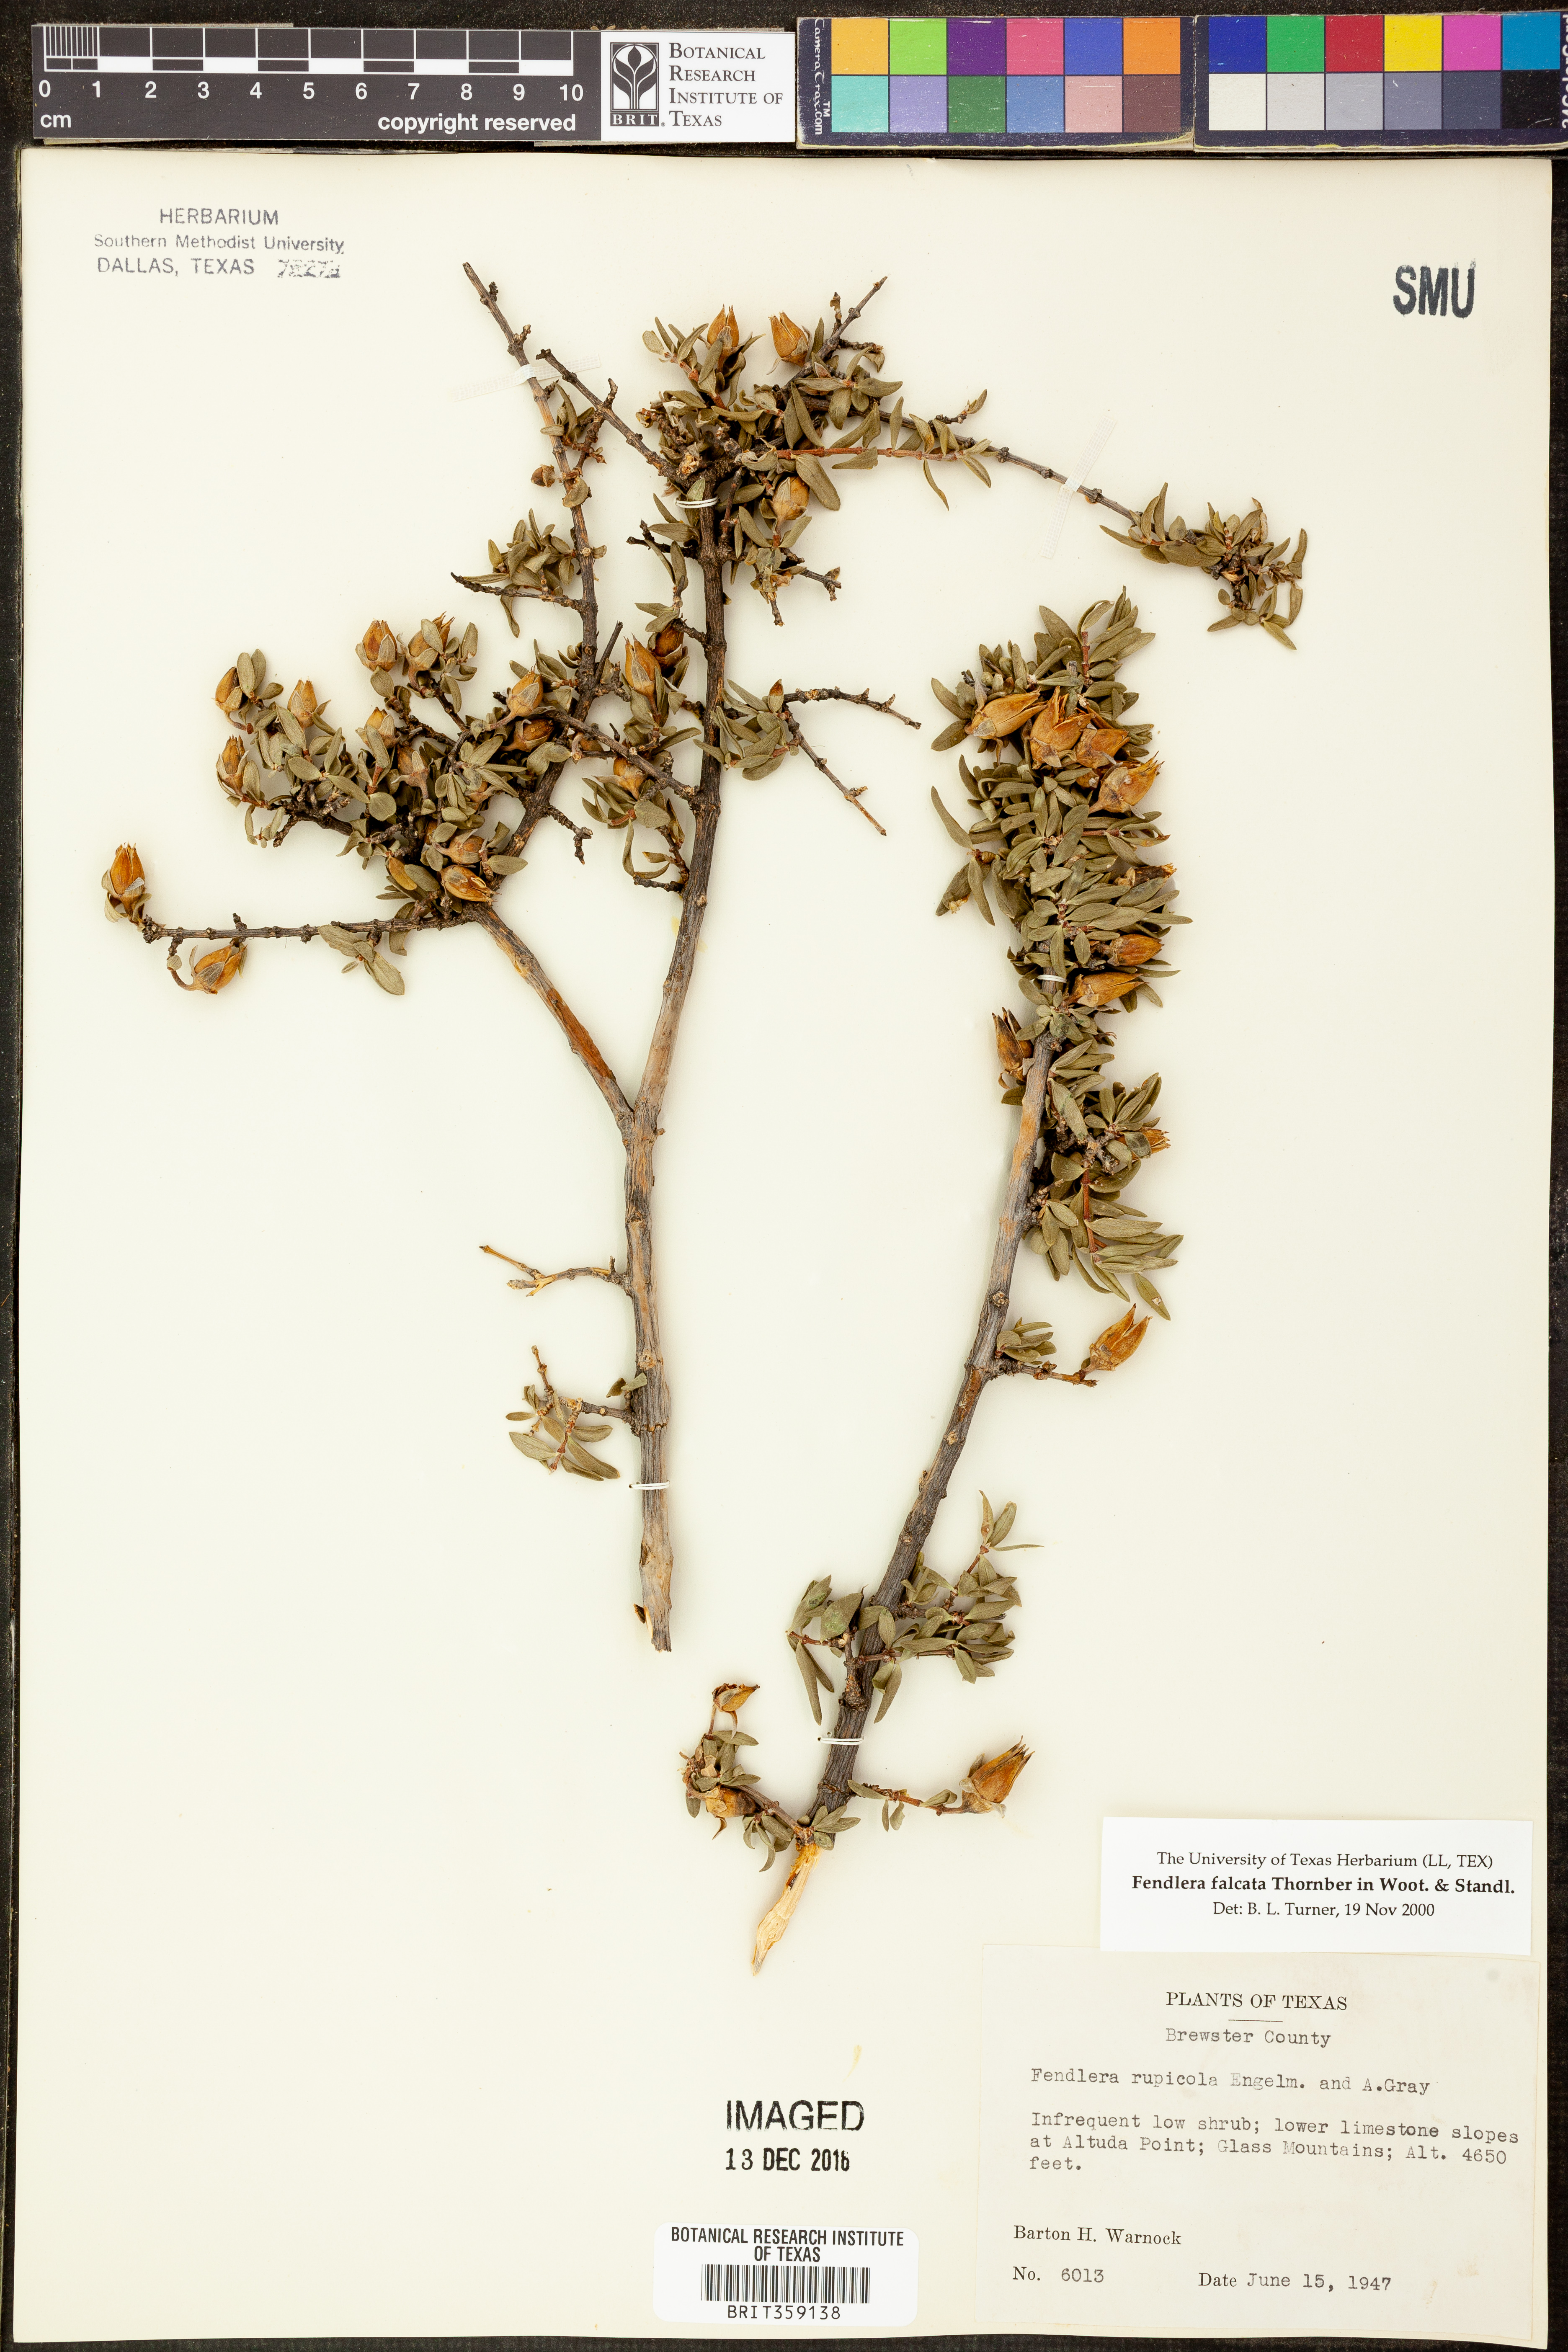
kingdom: Plantae
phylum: Tracheophyta
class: Magnoliopsida
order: Cornales
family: Hydrangeaceae
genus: Fendlera
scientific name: Fendlera rupicola
